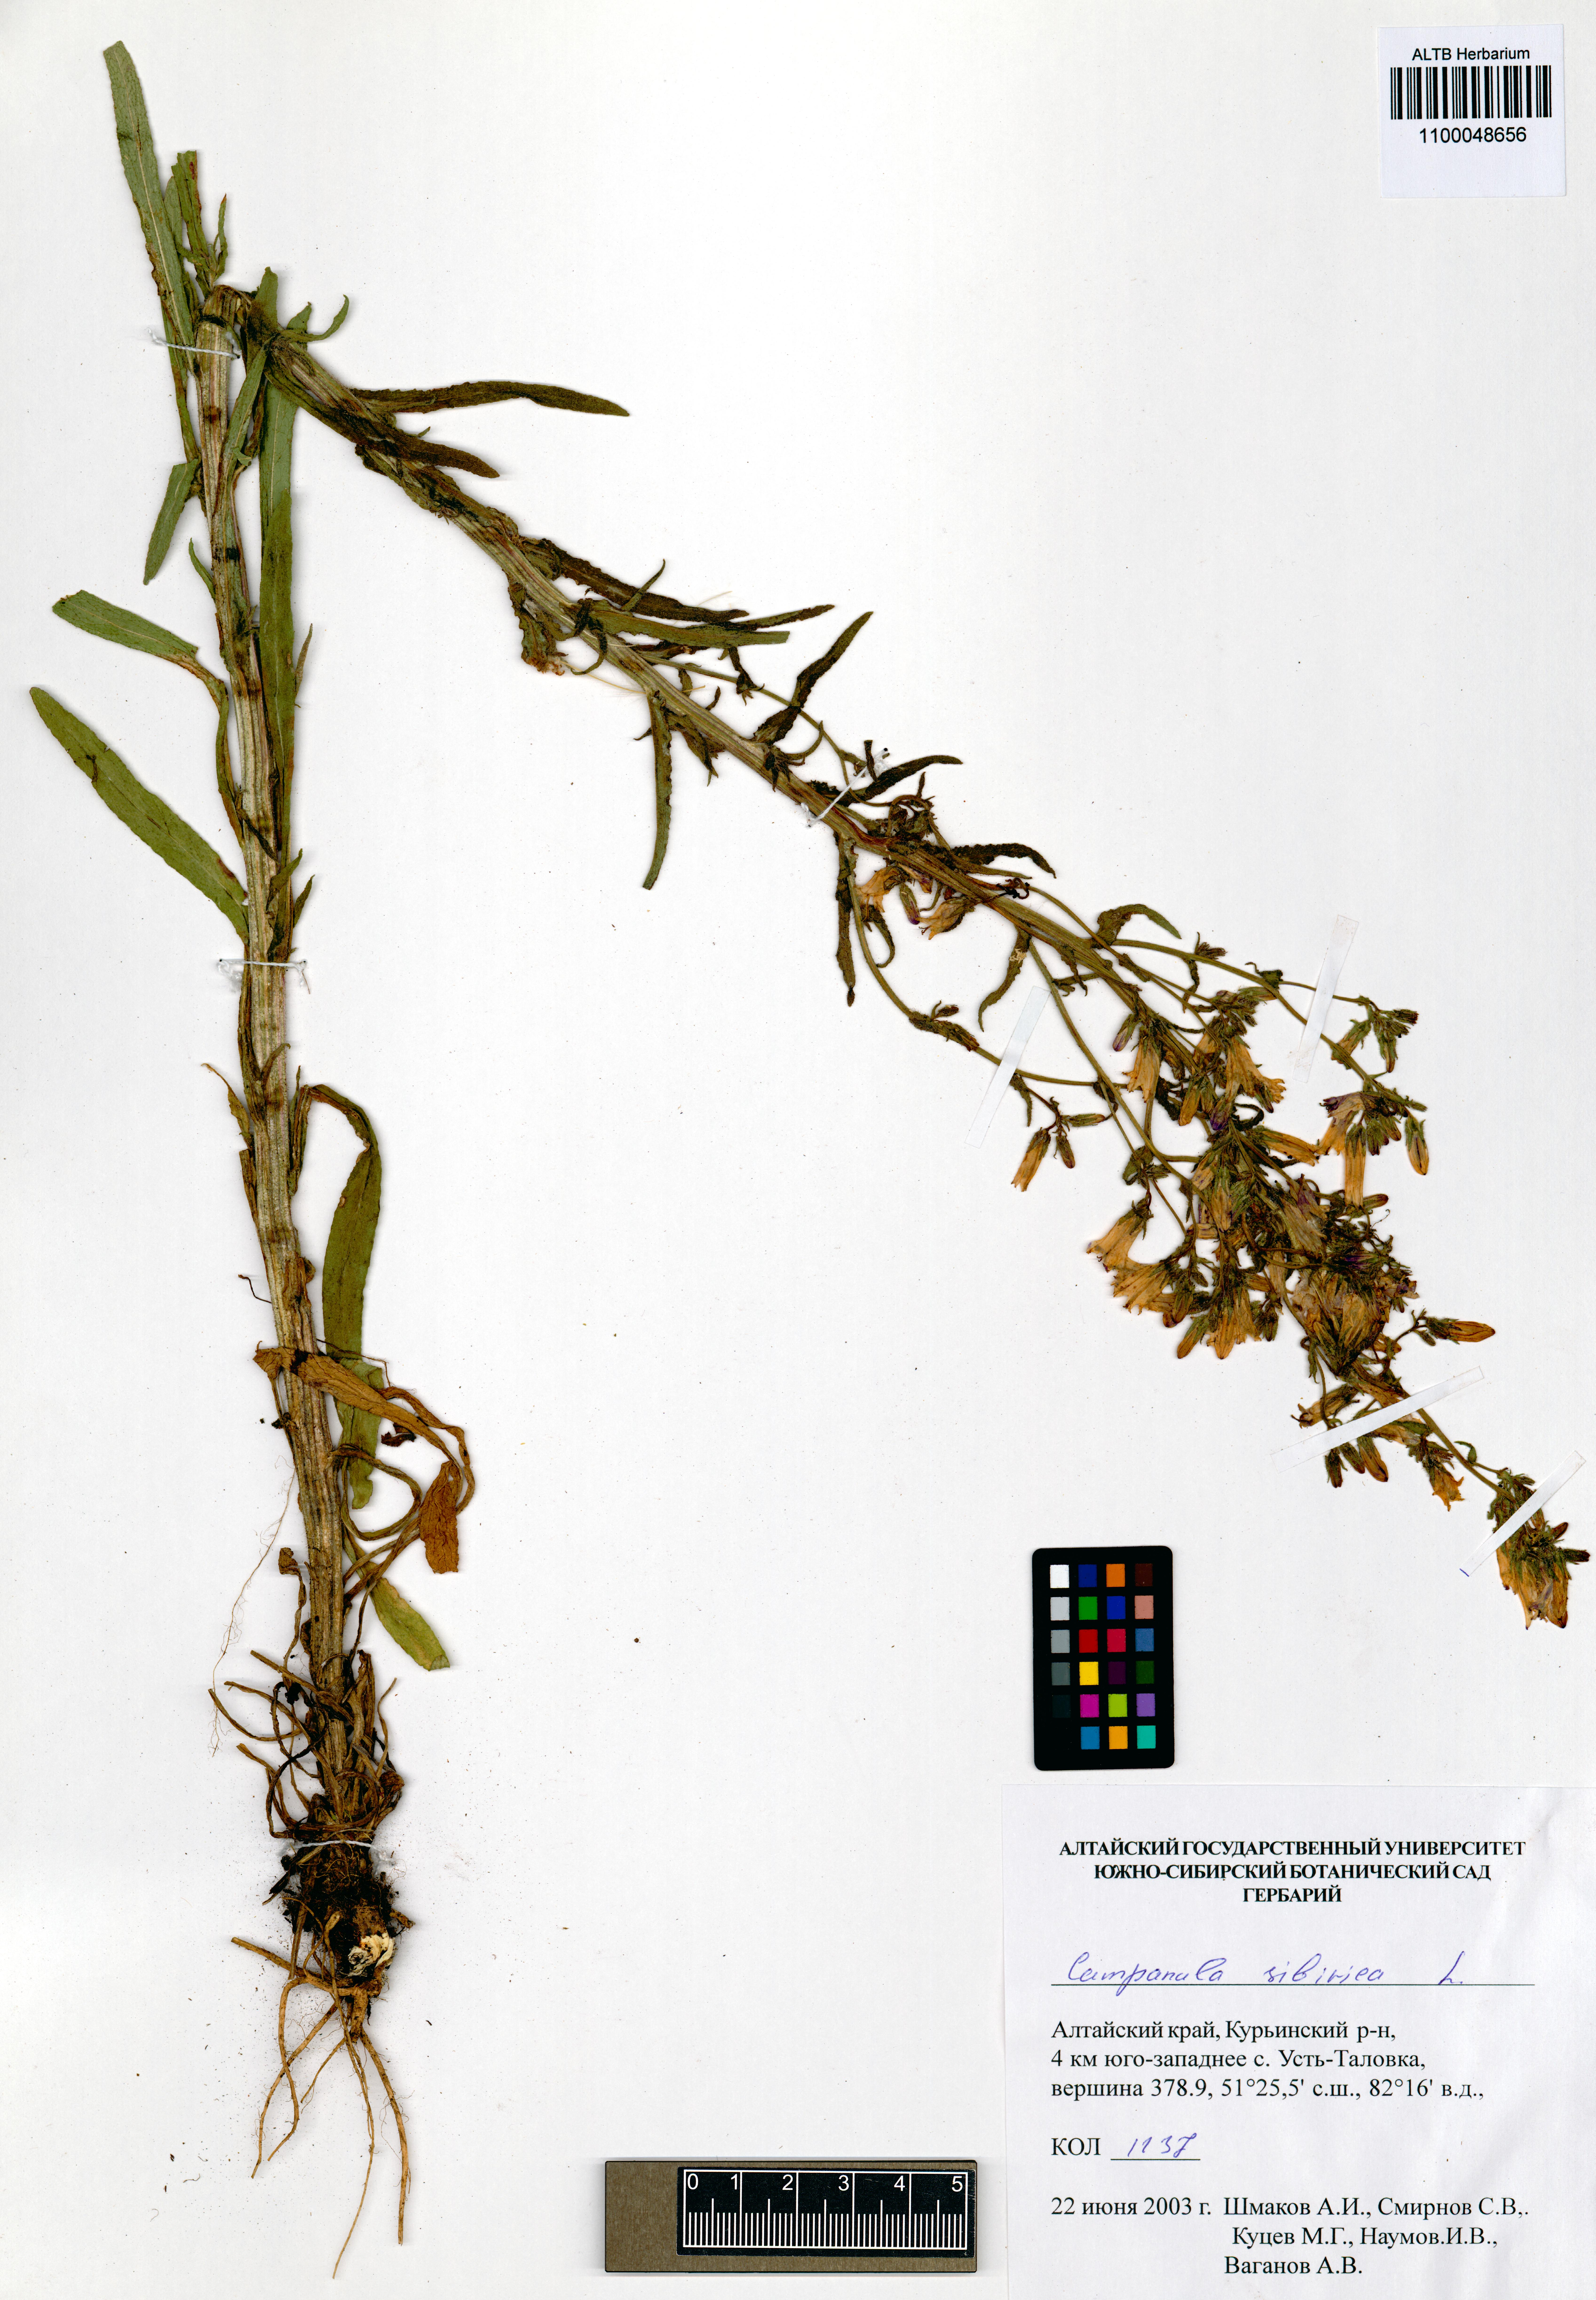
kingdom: Plantae
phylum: Tracheophyta
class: Magnoliopsida
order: Asterales
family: Campanulaceae
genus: Campanula
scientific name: Campanula sibirica
